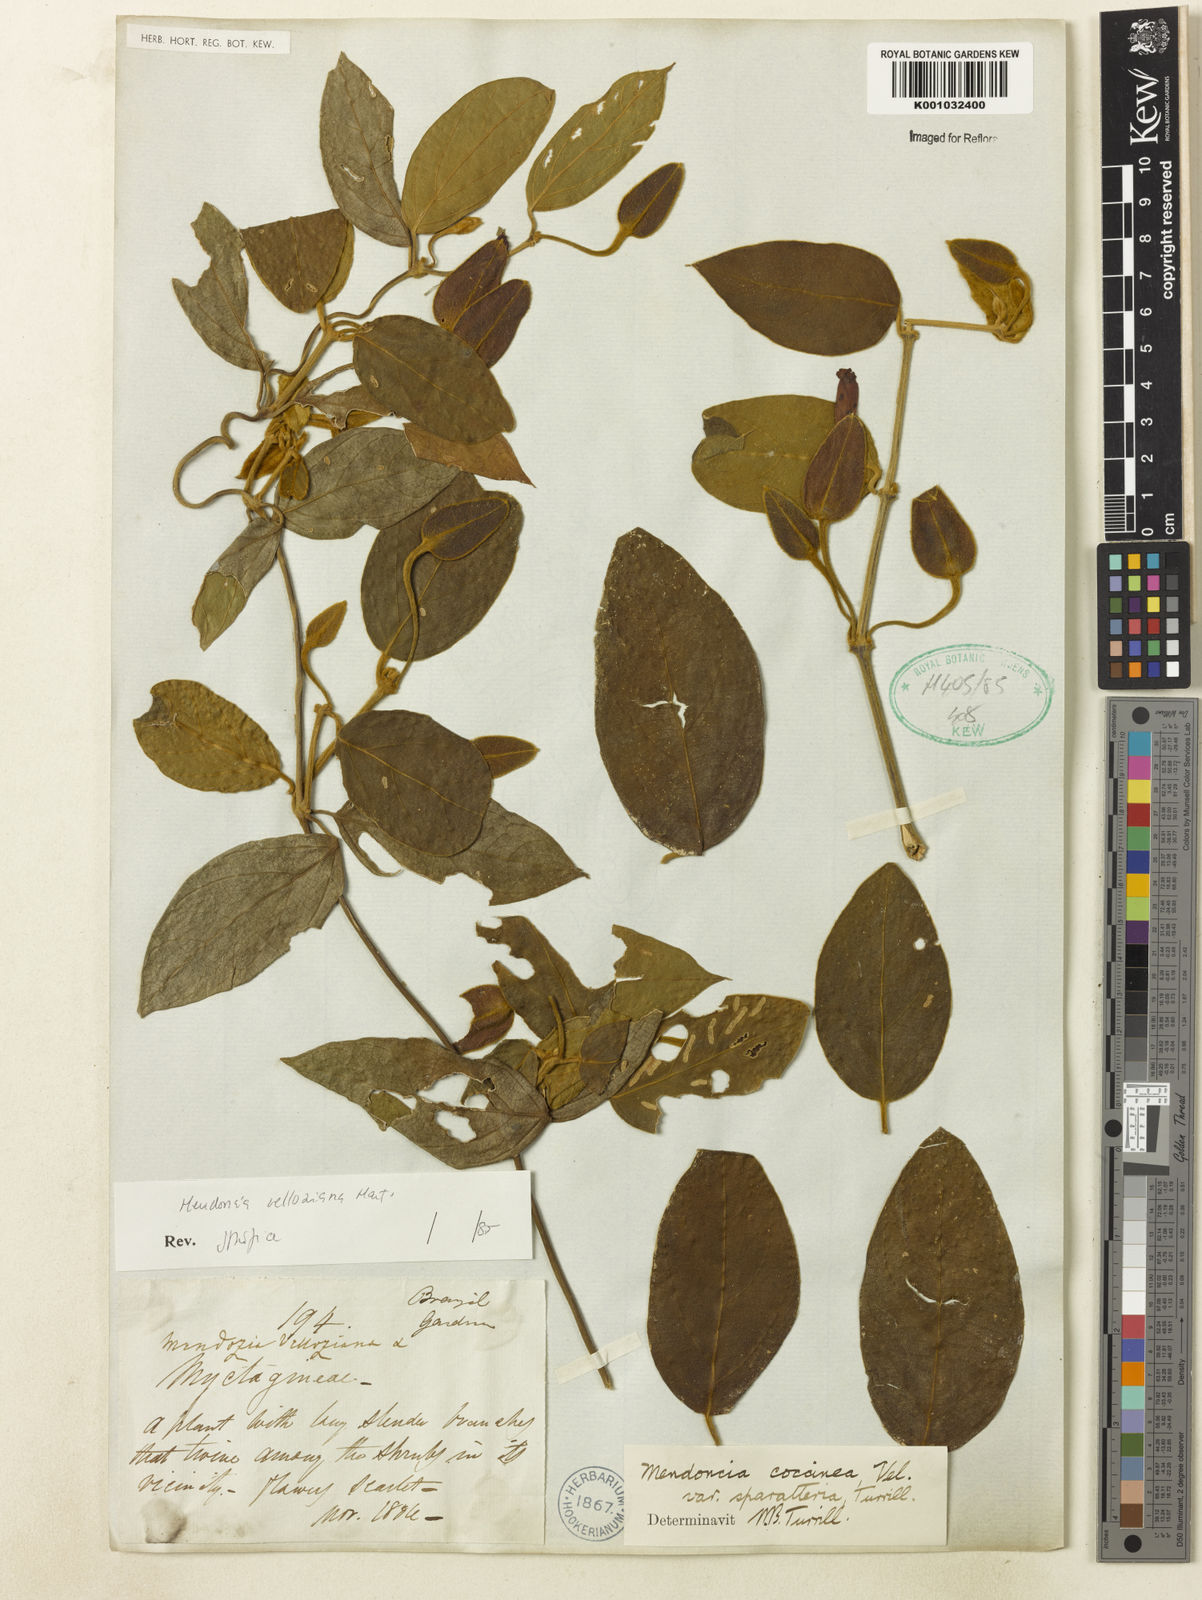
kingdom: Plantae
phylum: Tracheophyta
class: Magnoliopsida
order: Lamiales
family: Acanthaceae
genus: Mendoncia
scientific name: Mendoncia velloziana
